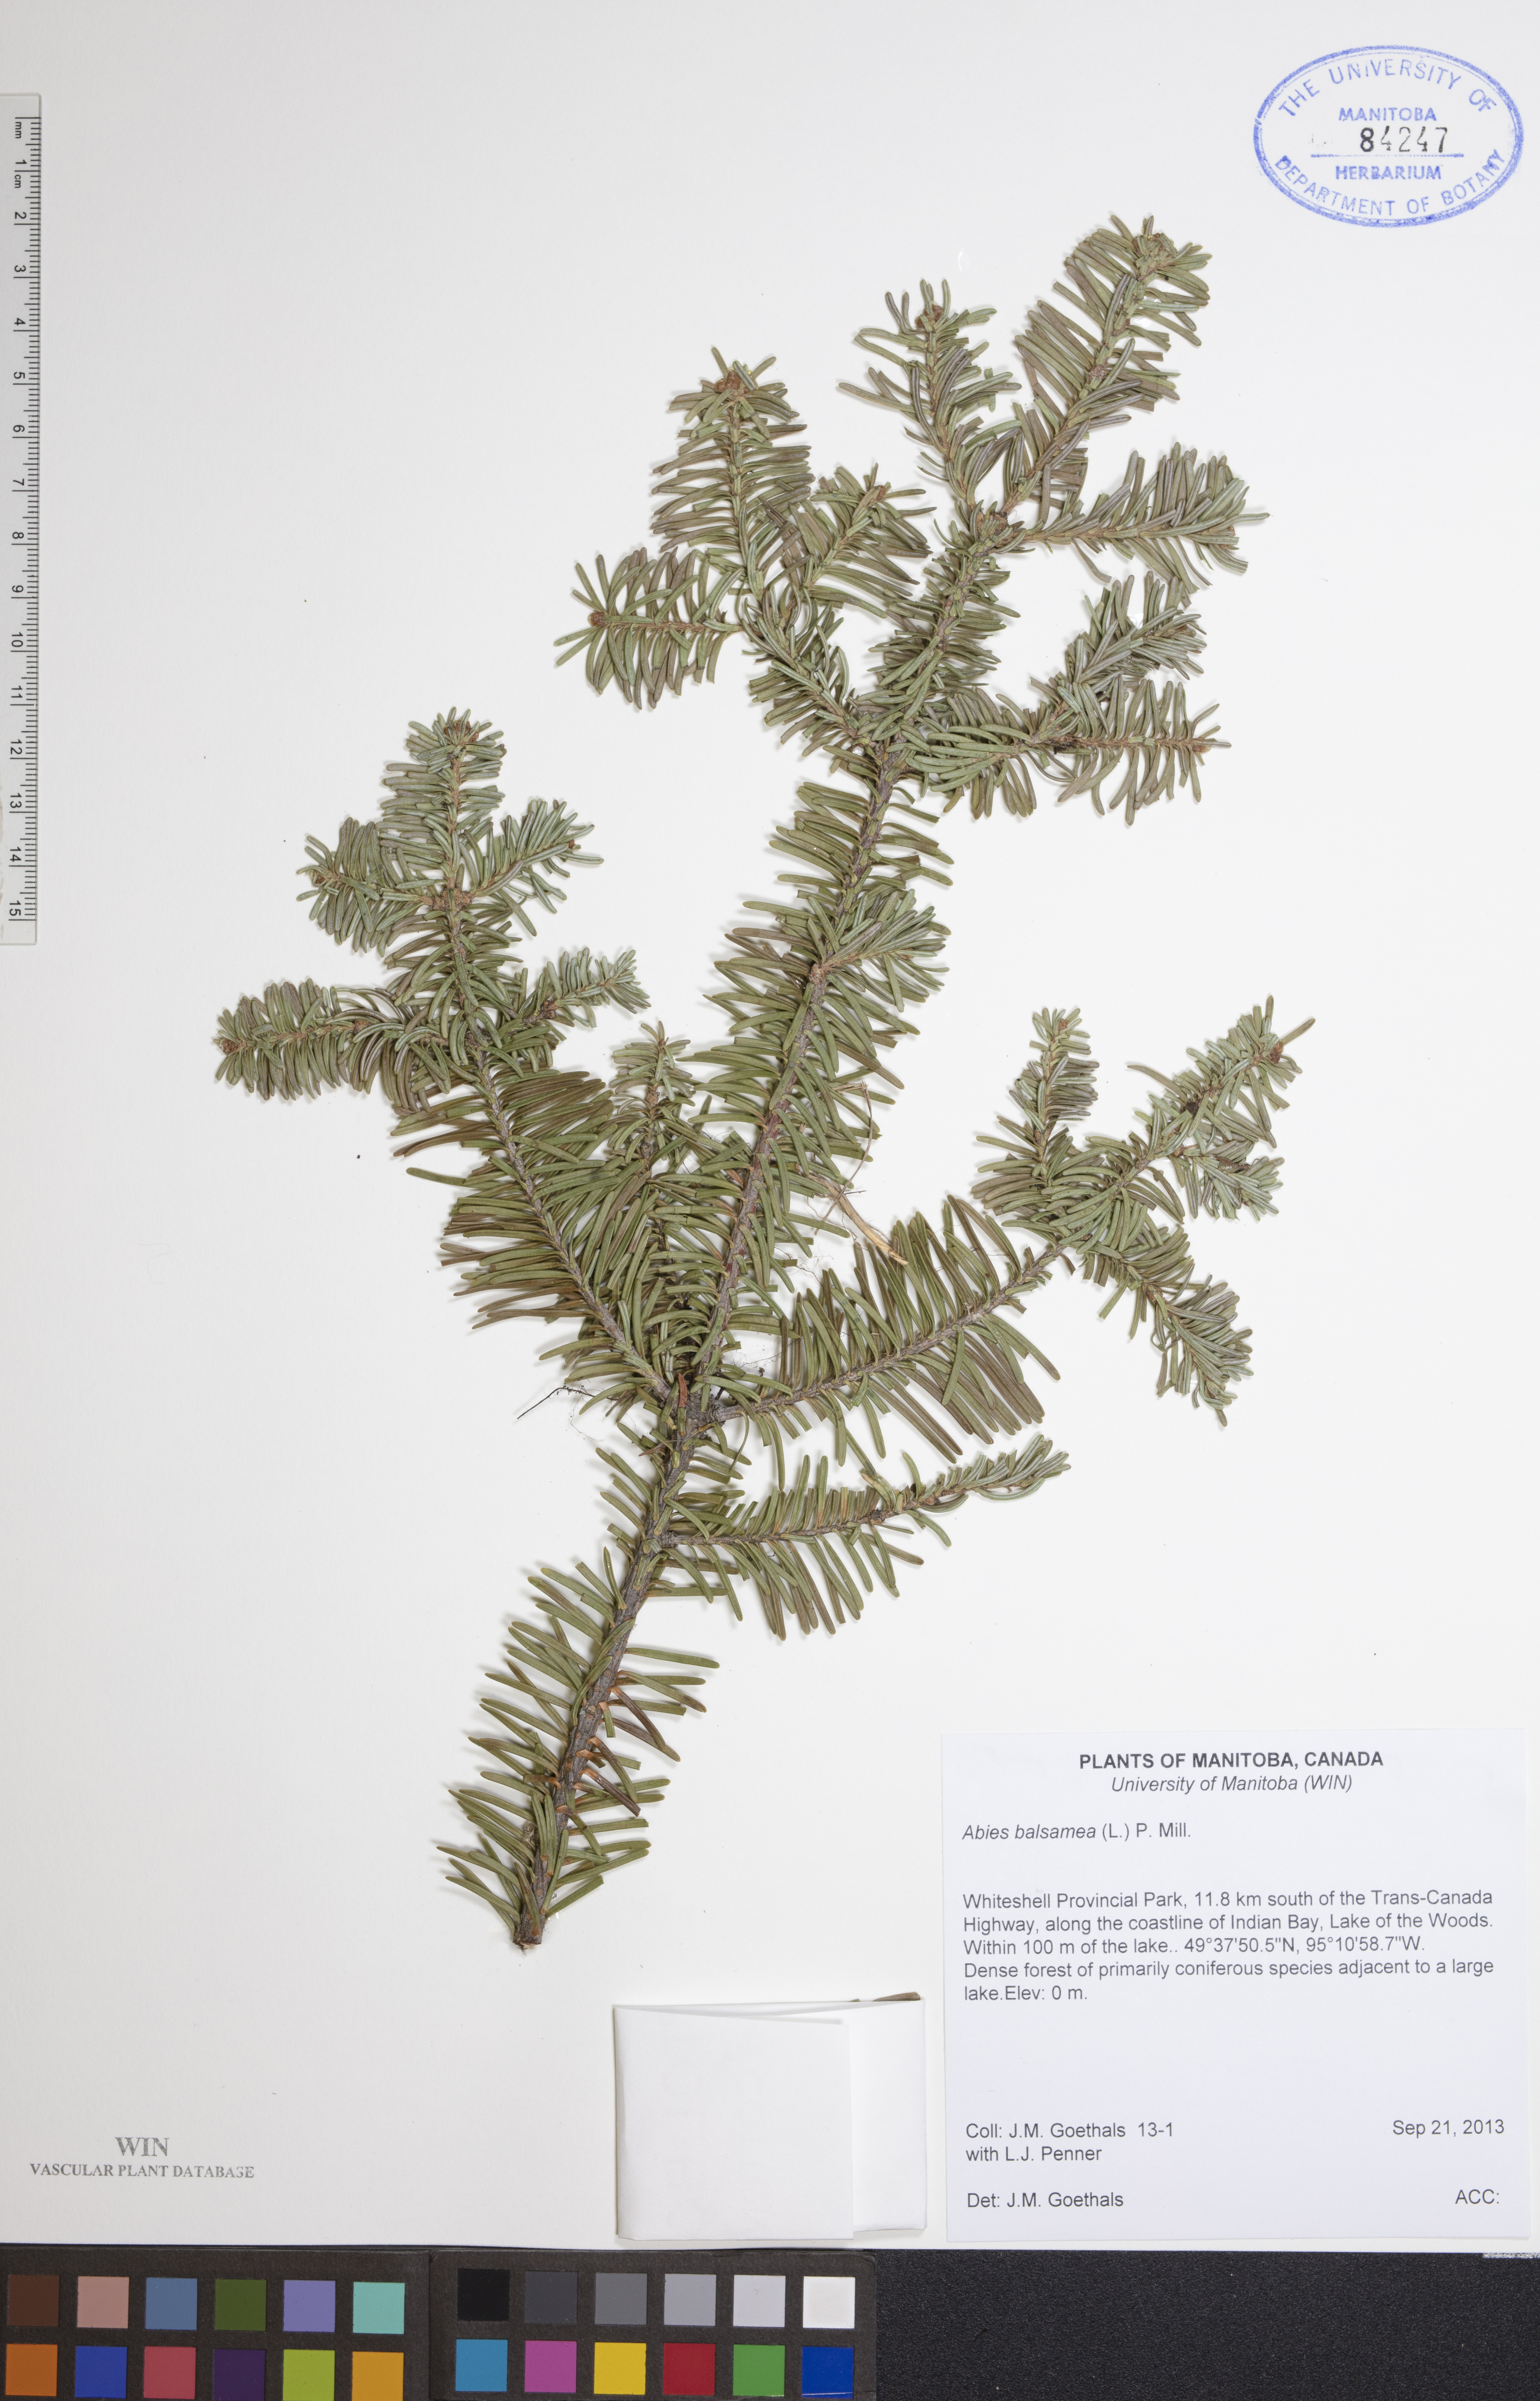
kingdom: Plantae
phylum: Tracheophyta
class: Pinopsida
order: Pinales
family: Pinaceae
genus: Abies
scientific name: Abies balsamea
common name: Balsam fir
